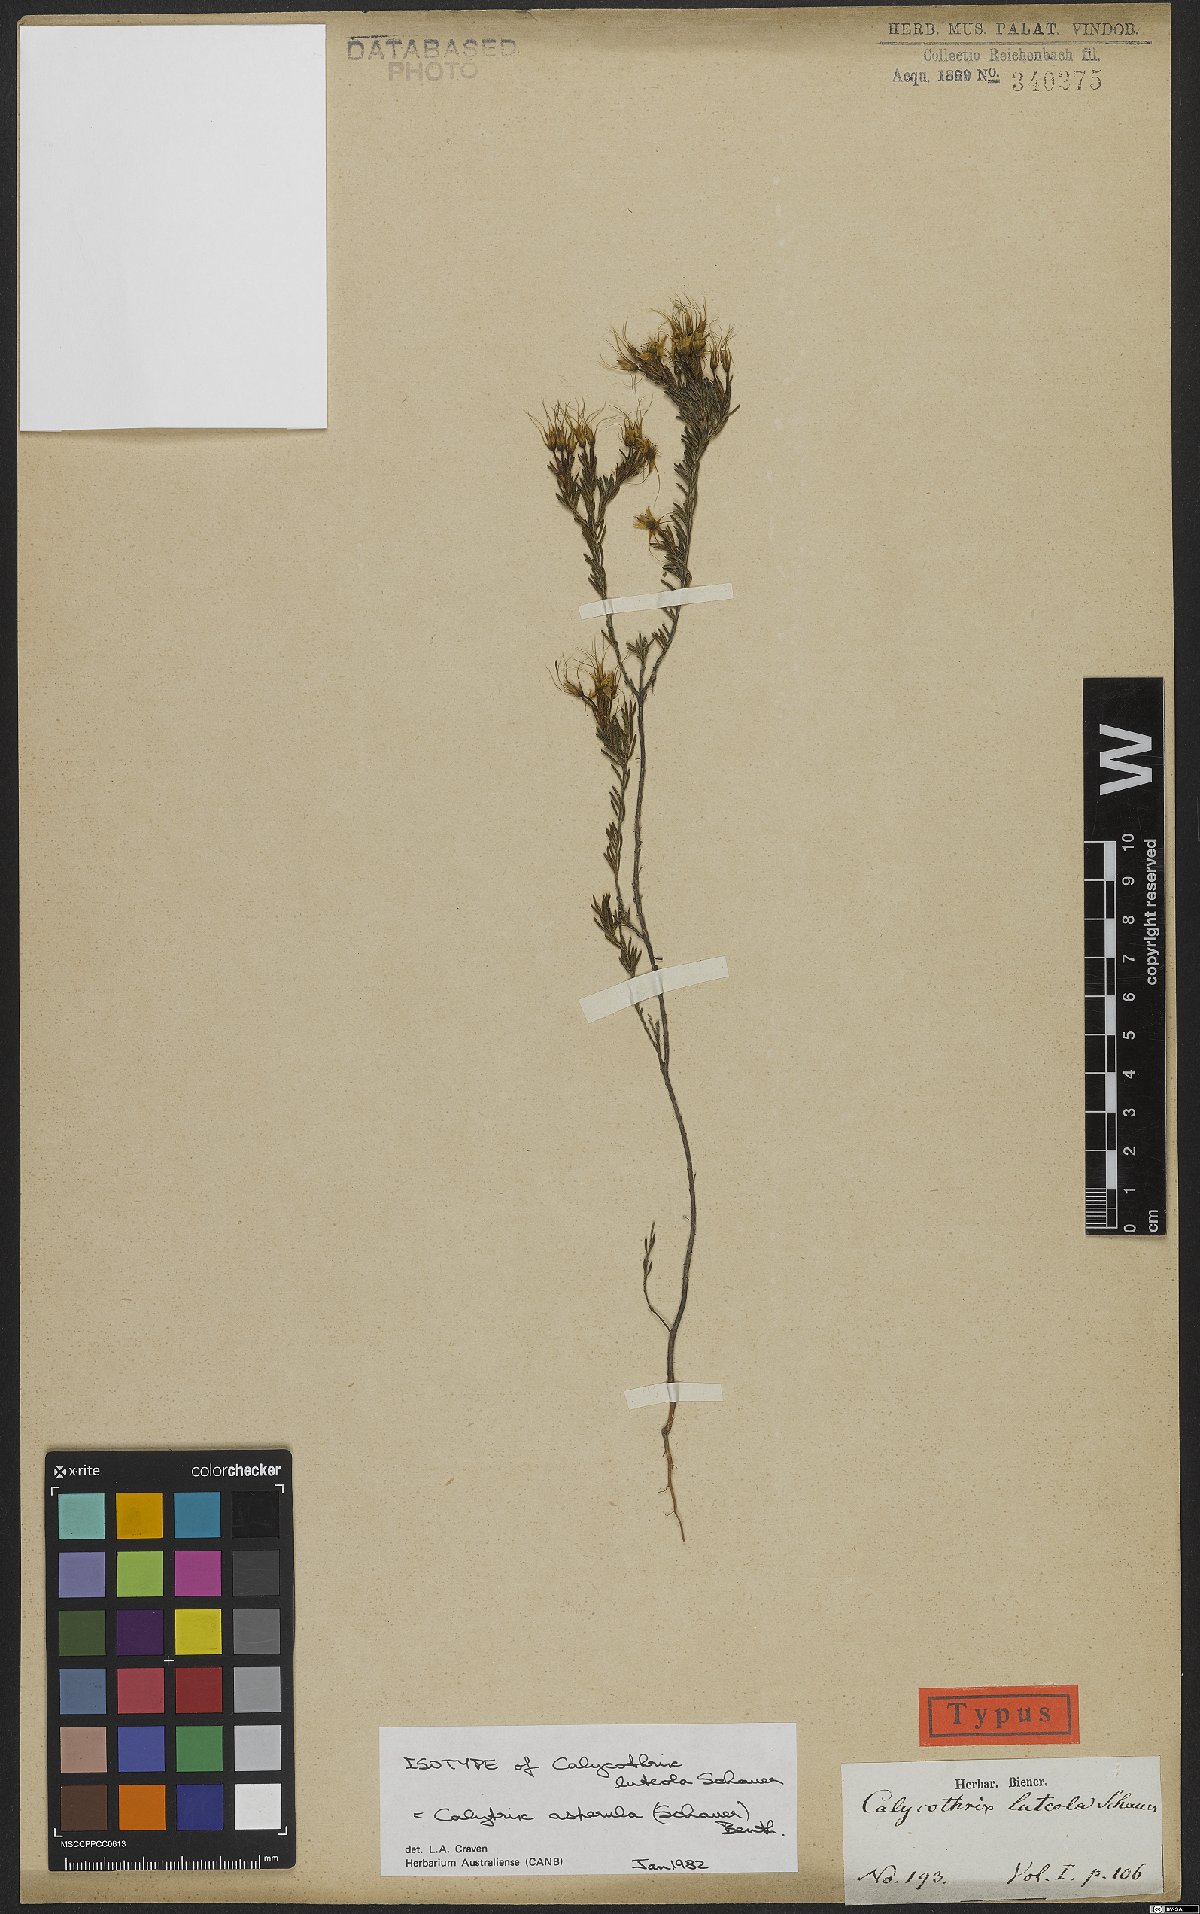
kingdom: Plantae
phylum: Tracheophyta
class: Magnoliopsida
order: Myrtales
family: Myrtaceae
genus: Calytrix
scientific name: Calytrix asperula
